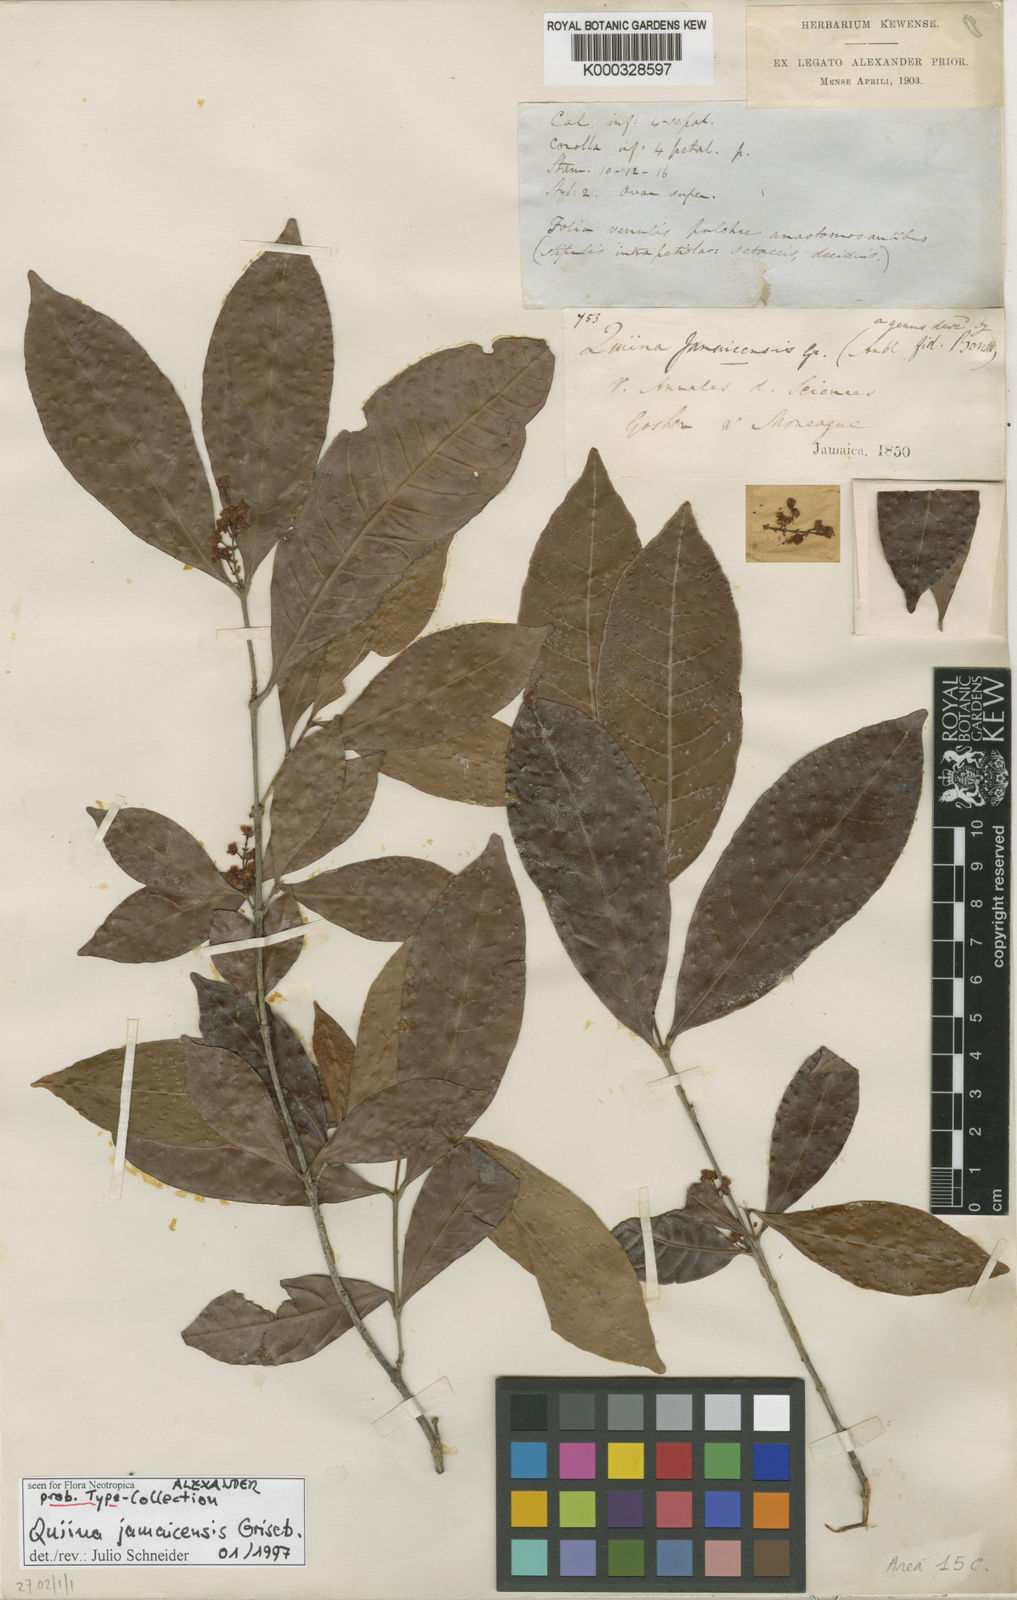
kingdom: Plantae
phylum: Tracheophyta
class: Magnoliopsida
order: Malpighiales
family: Quiinaceae
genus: Quiina
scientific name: Quiina jamaicensis
